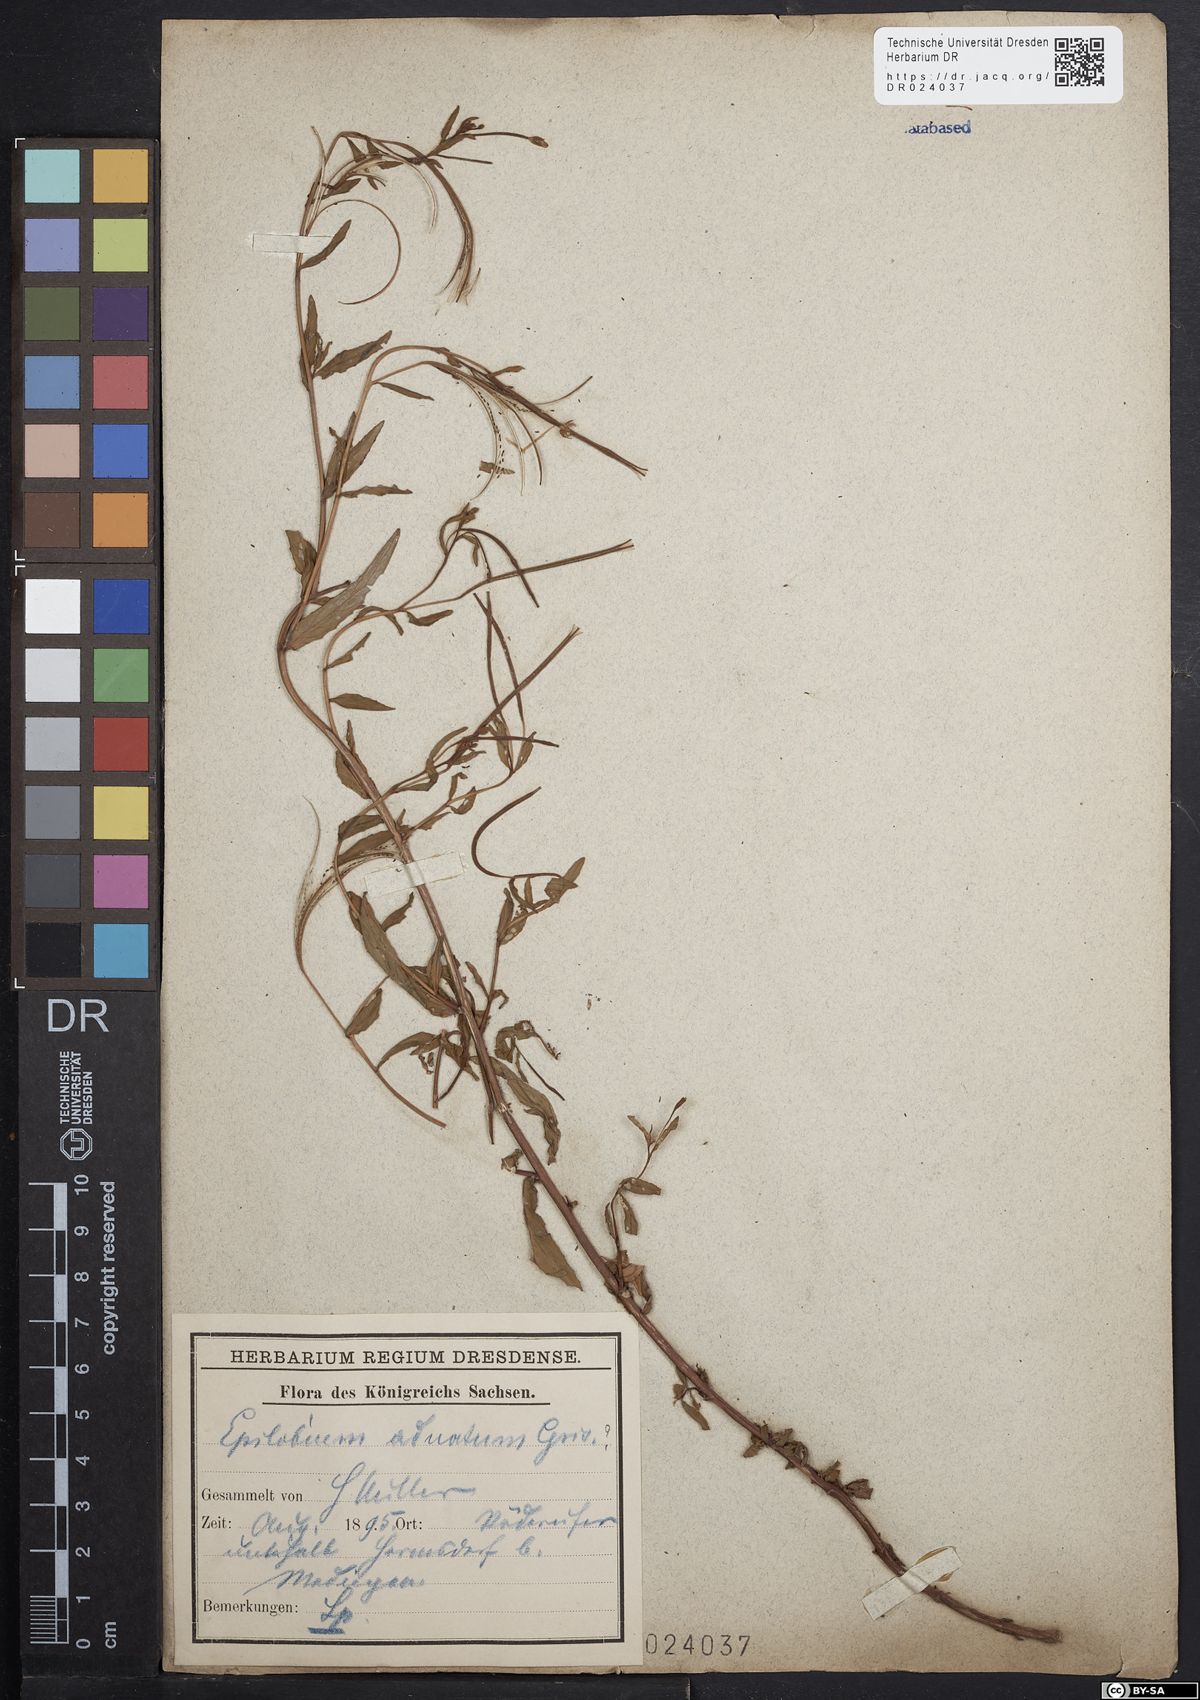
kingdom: Plantae
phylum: Tracheophyta
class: Magnoliopsida
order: Myrtales
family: Onagraceae
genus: Epilobium
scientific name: Epilobium tetragonum
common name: Square-stemmed willowherb
